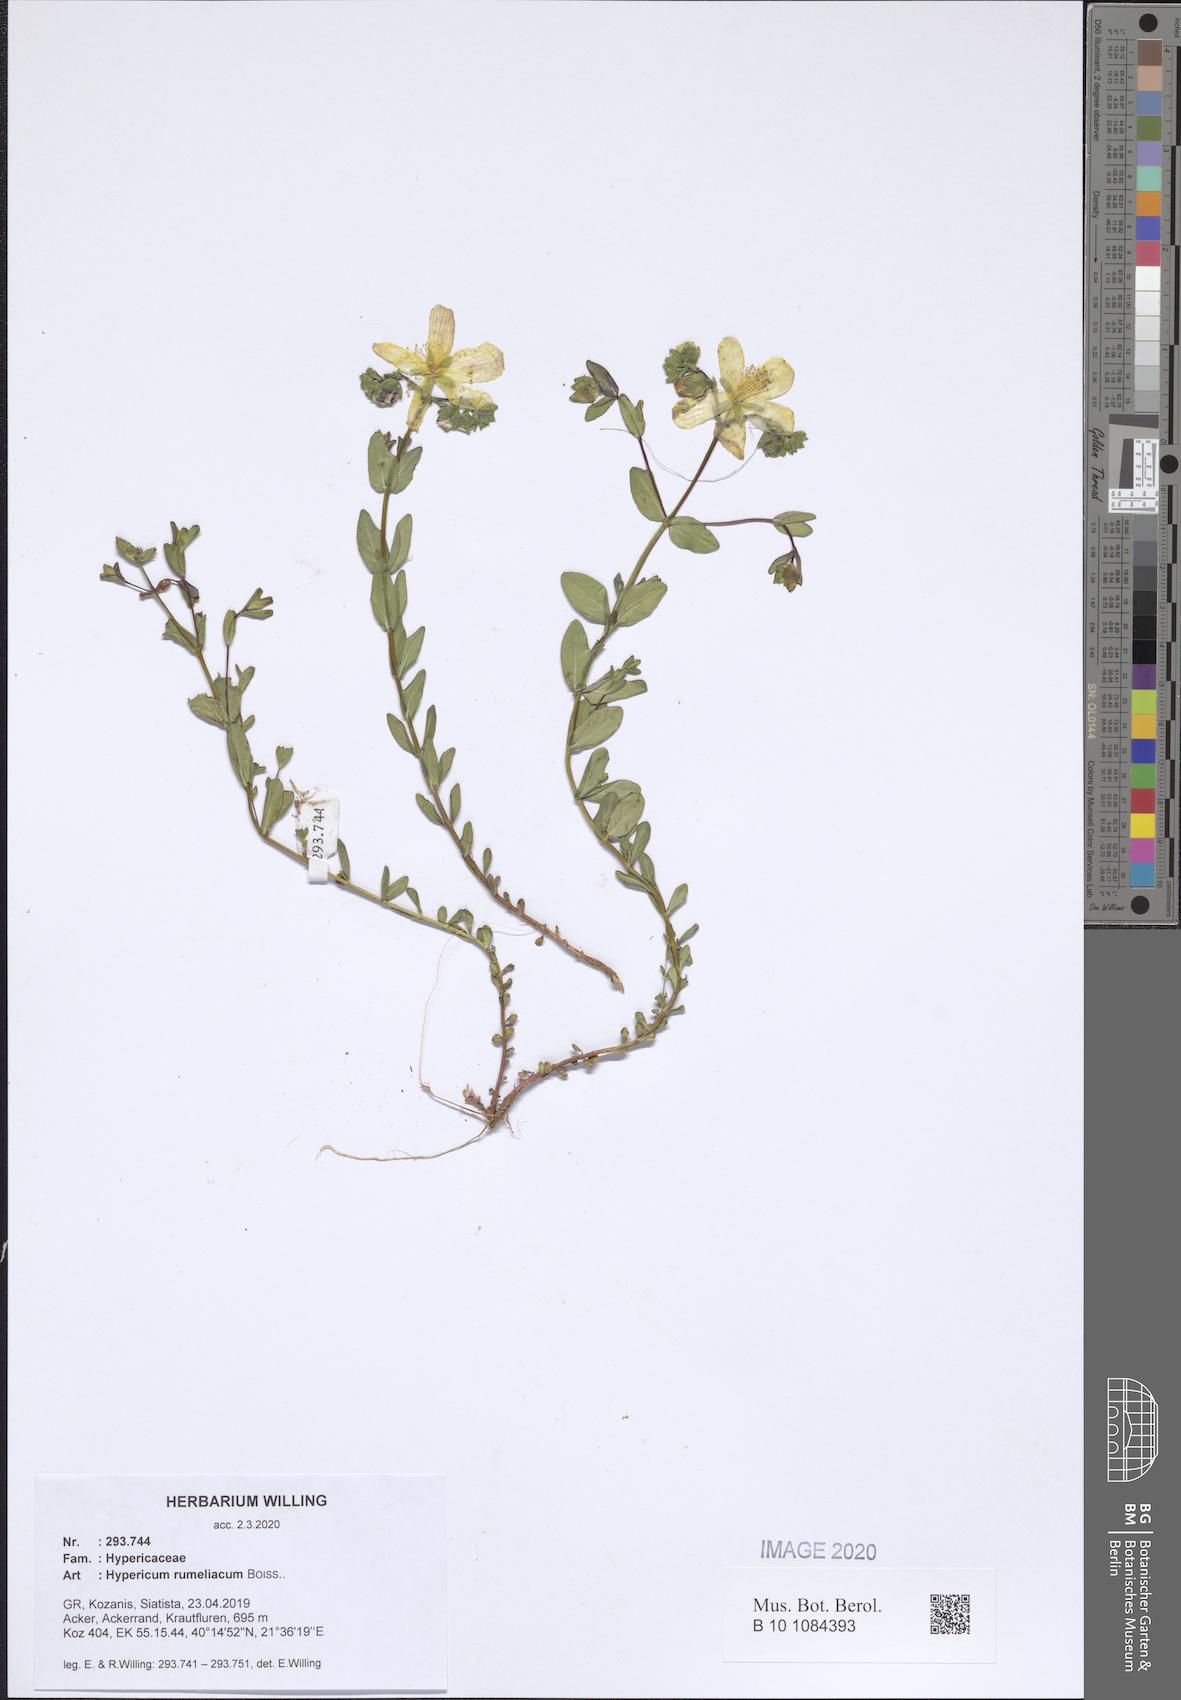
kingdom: Plantae
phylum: Tracheophyta
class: Magnoliopsida
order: Malpighiales
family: Hypericaceae
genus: Hypericum
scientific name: Hypericum rumeliacum
